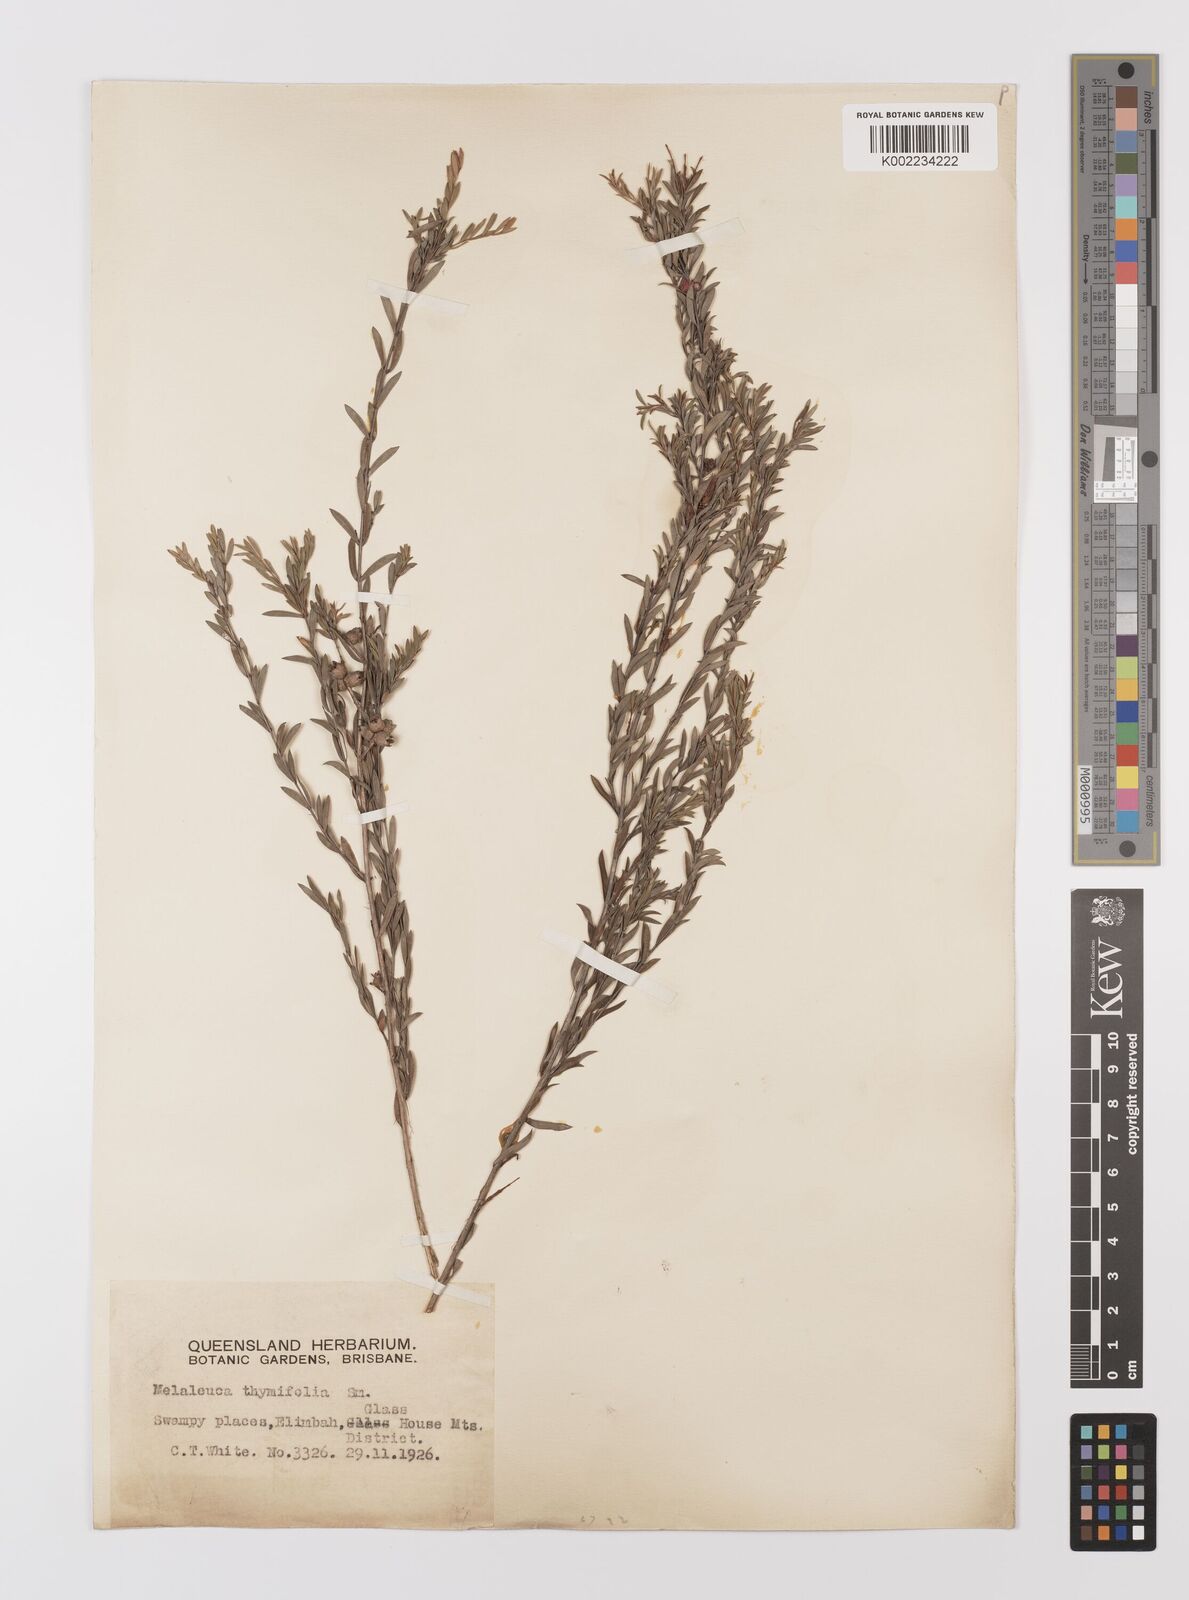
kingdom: Plantae
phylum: Tracheophyta
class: Magnoliopsida
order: Myrtales
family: Myrtaceae
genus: Melaleuca
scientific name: Melaleuca thymifolia
